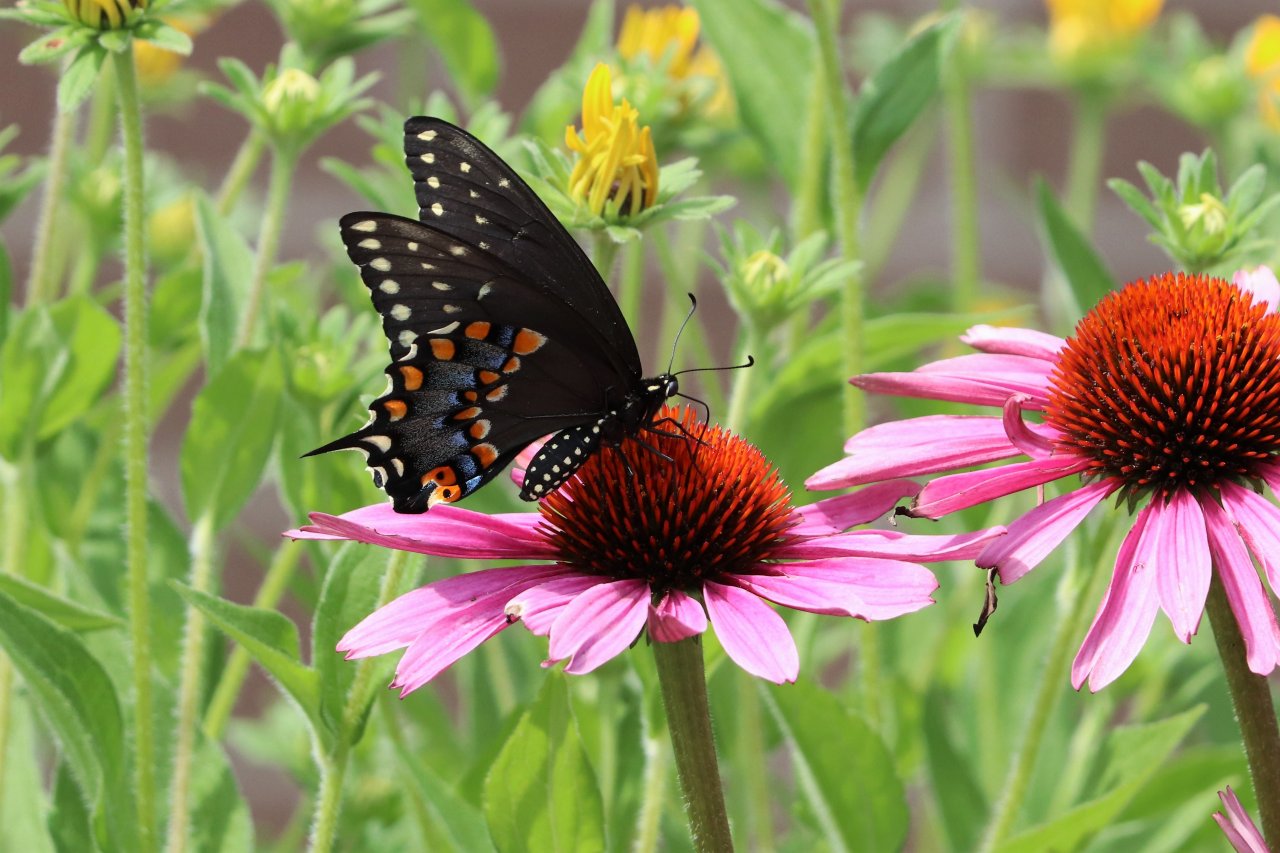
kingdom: Animalia
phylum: Arthropoda
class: Insecta
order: Lepidoptera
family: Papilionidae
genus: Papilio
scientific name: Papilio polyxenes
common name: Black Swallowtail
